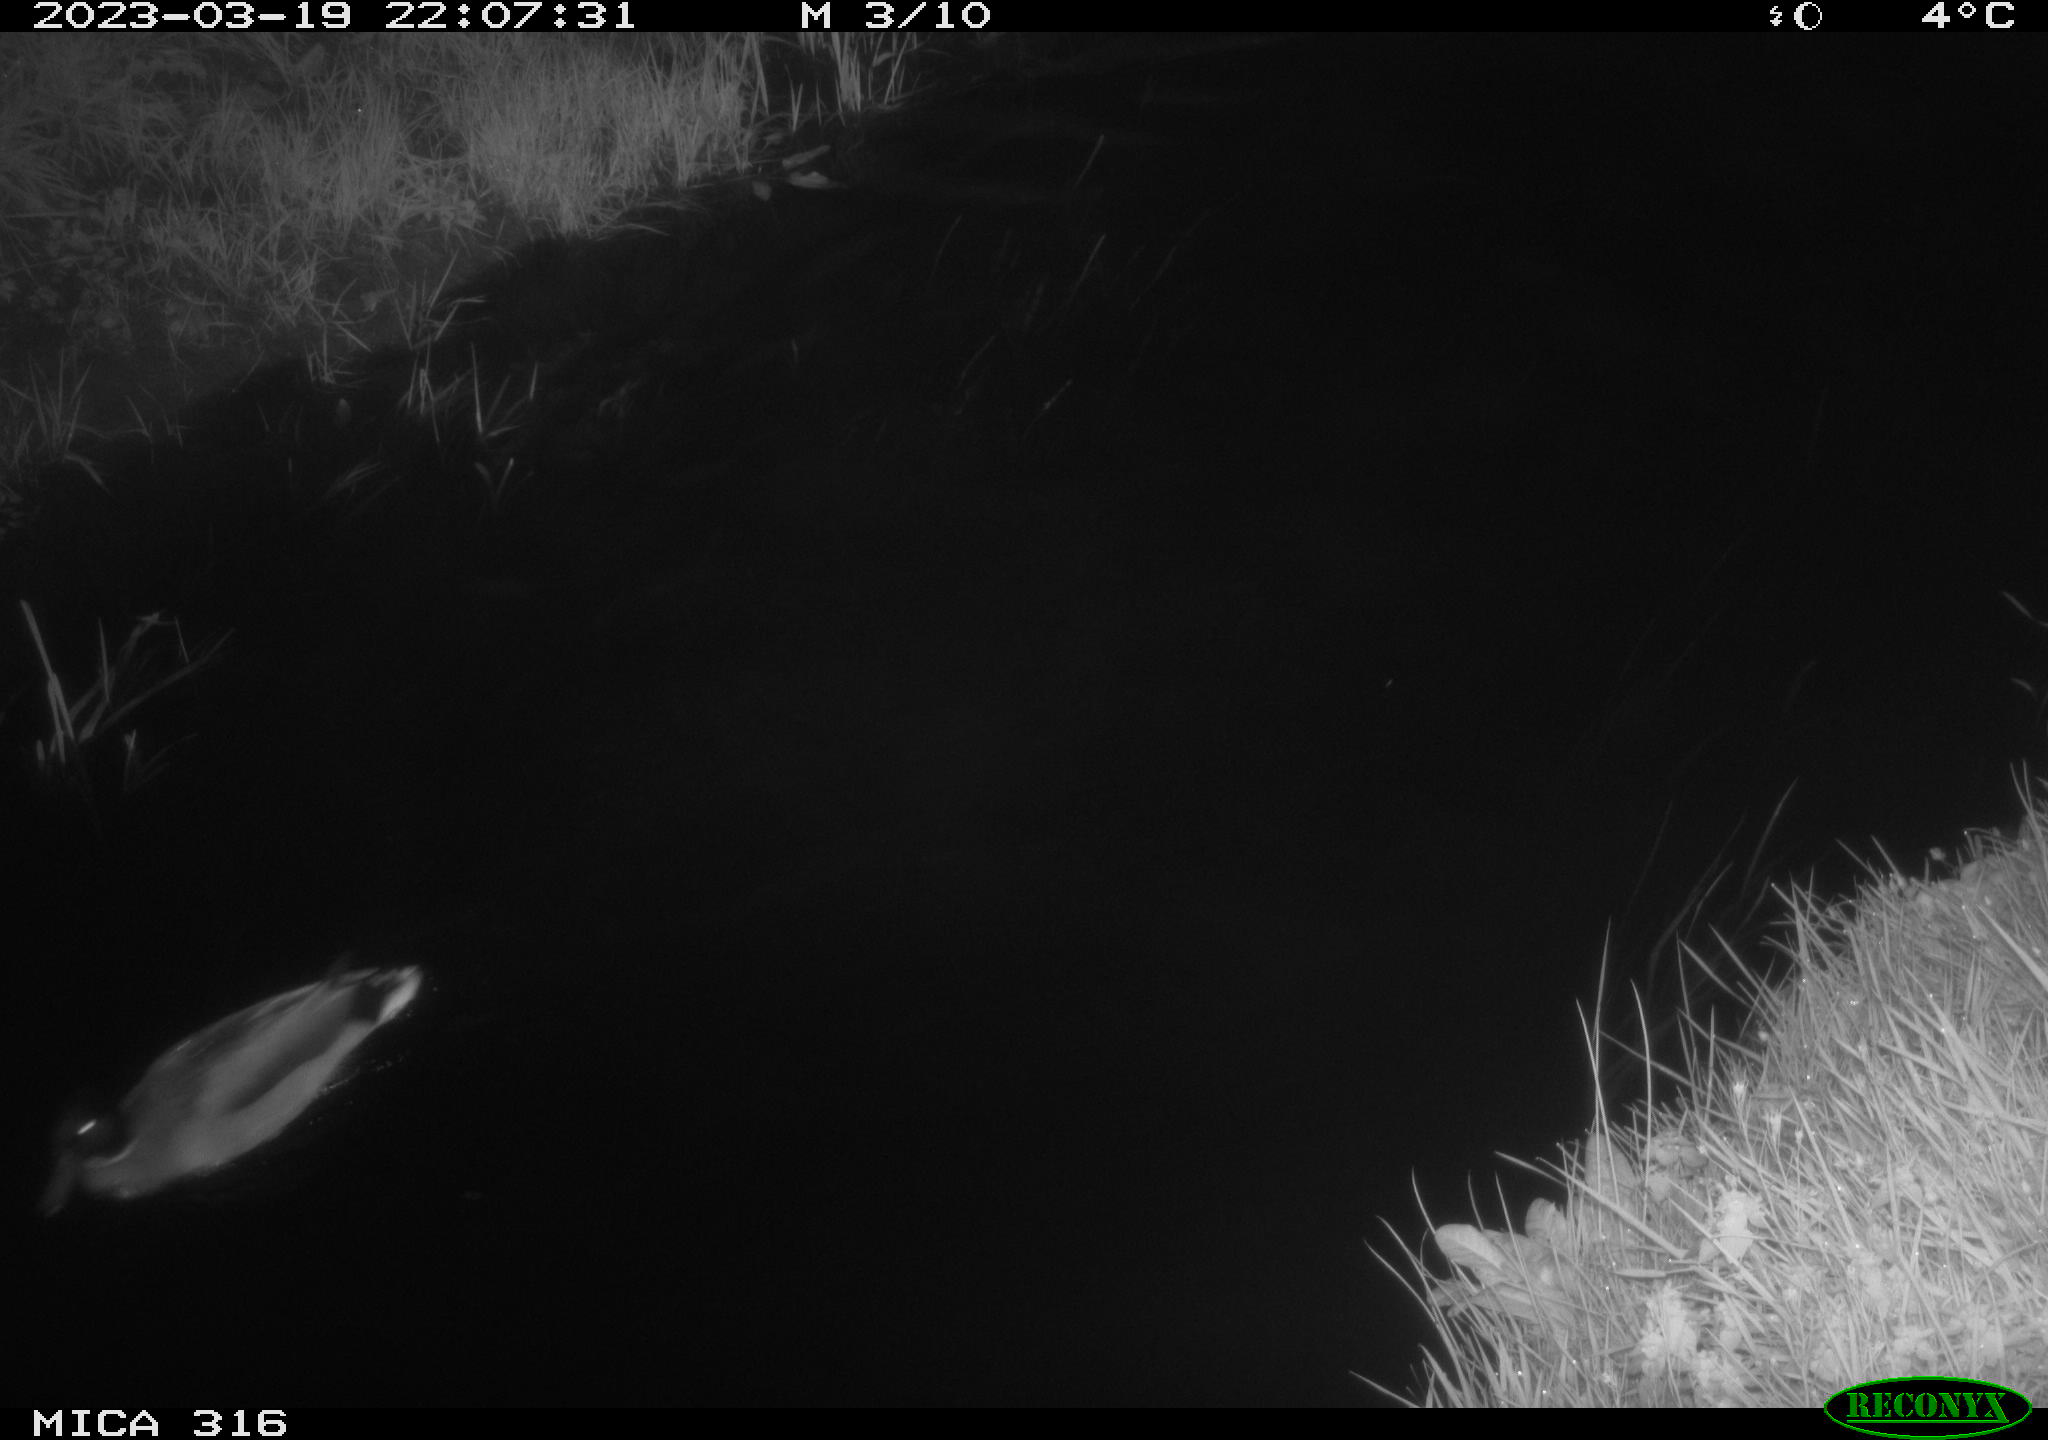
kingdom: Animalia
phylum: Chordata
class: Aves
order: Anseriformes
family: Anatidae
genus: Anas
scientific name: Anas
